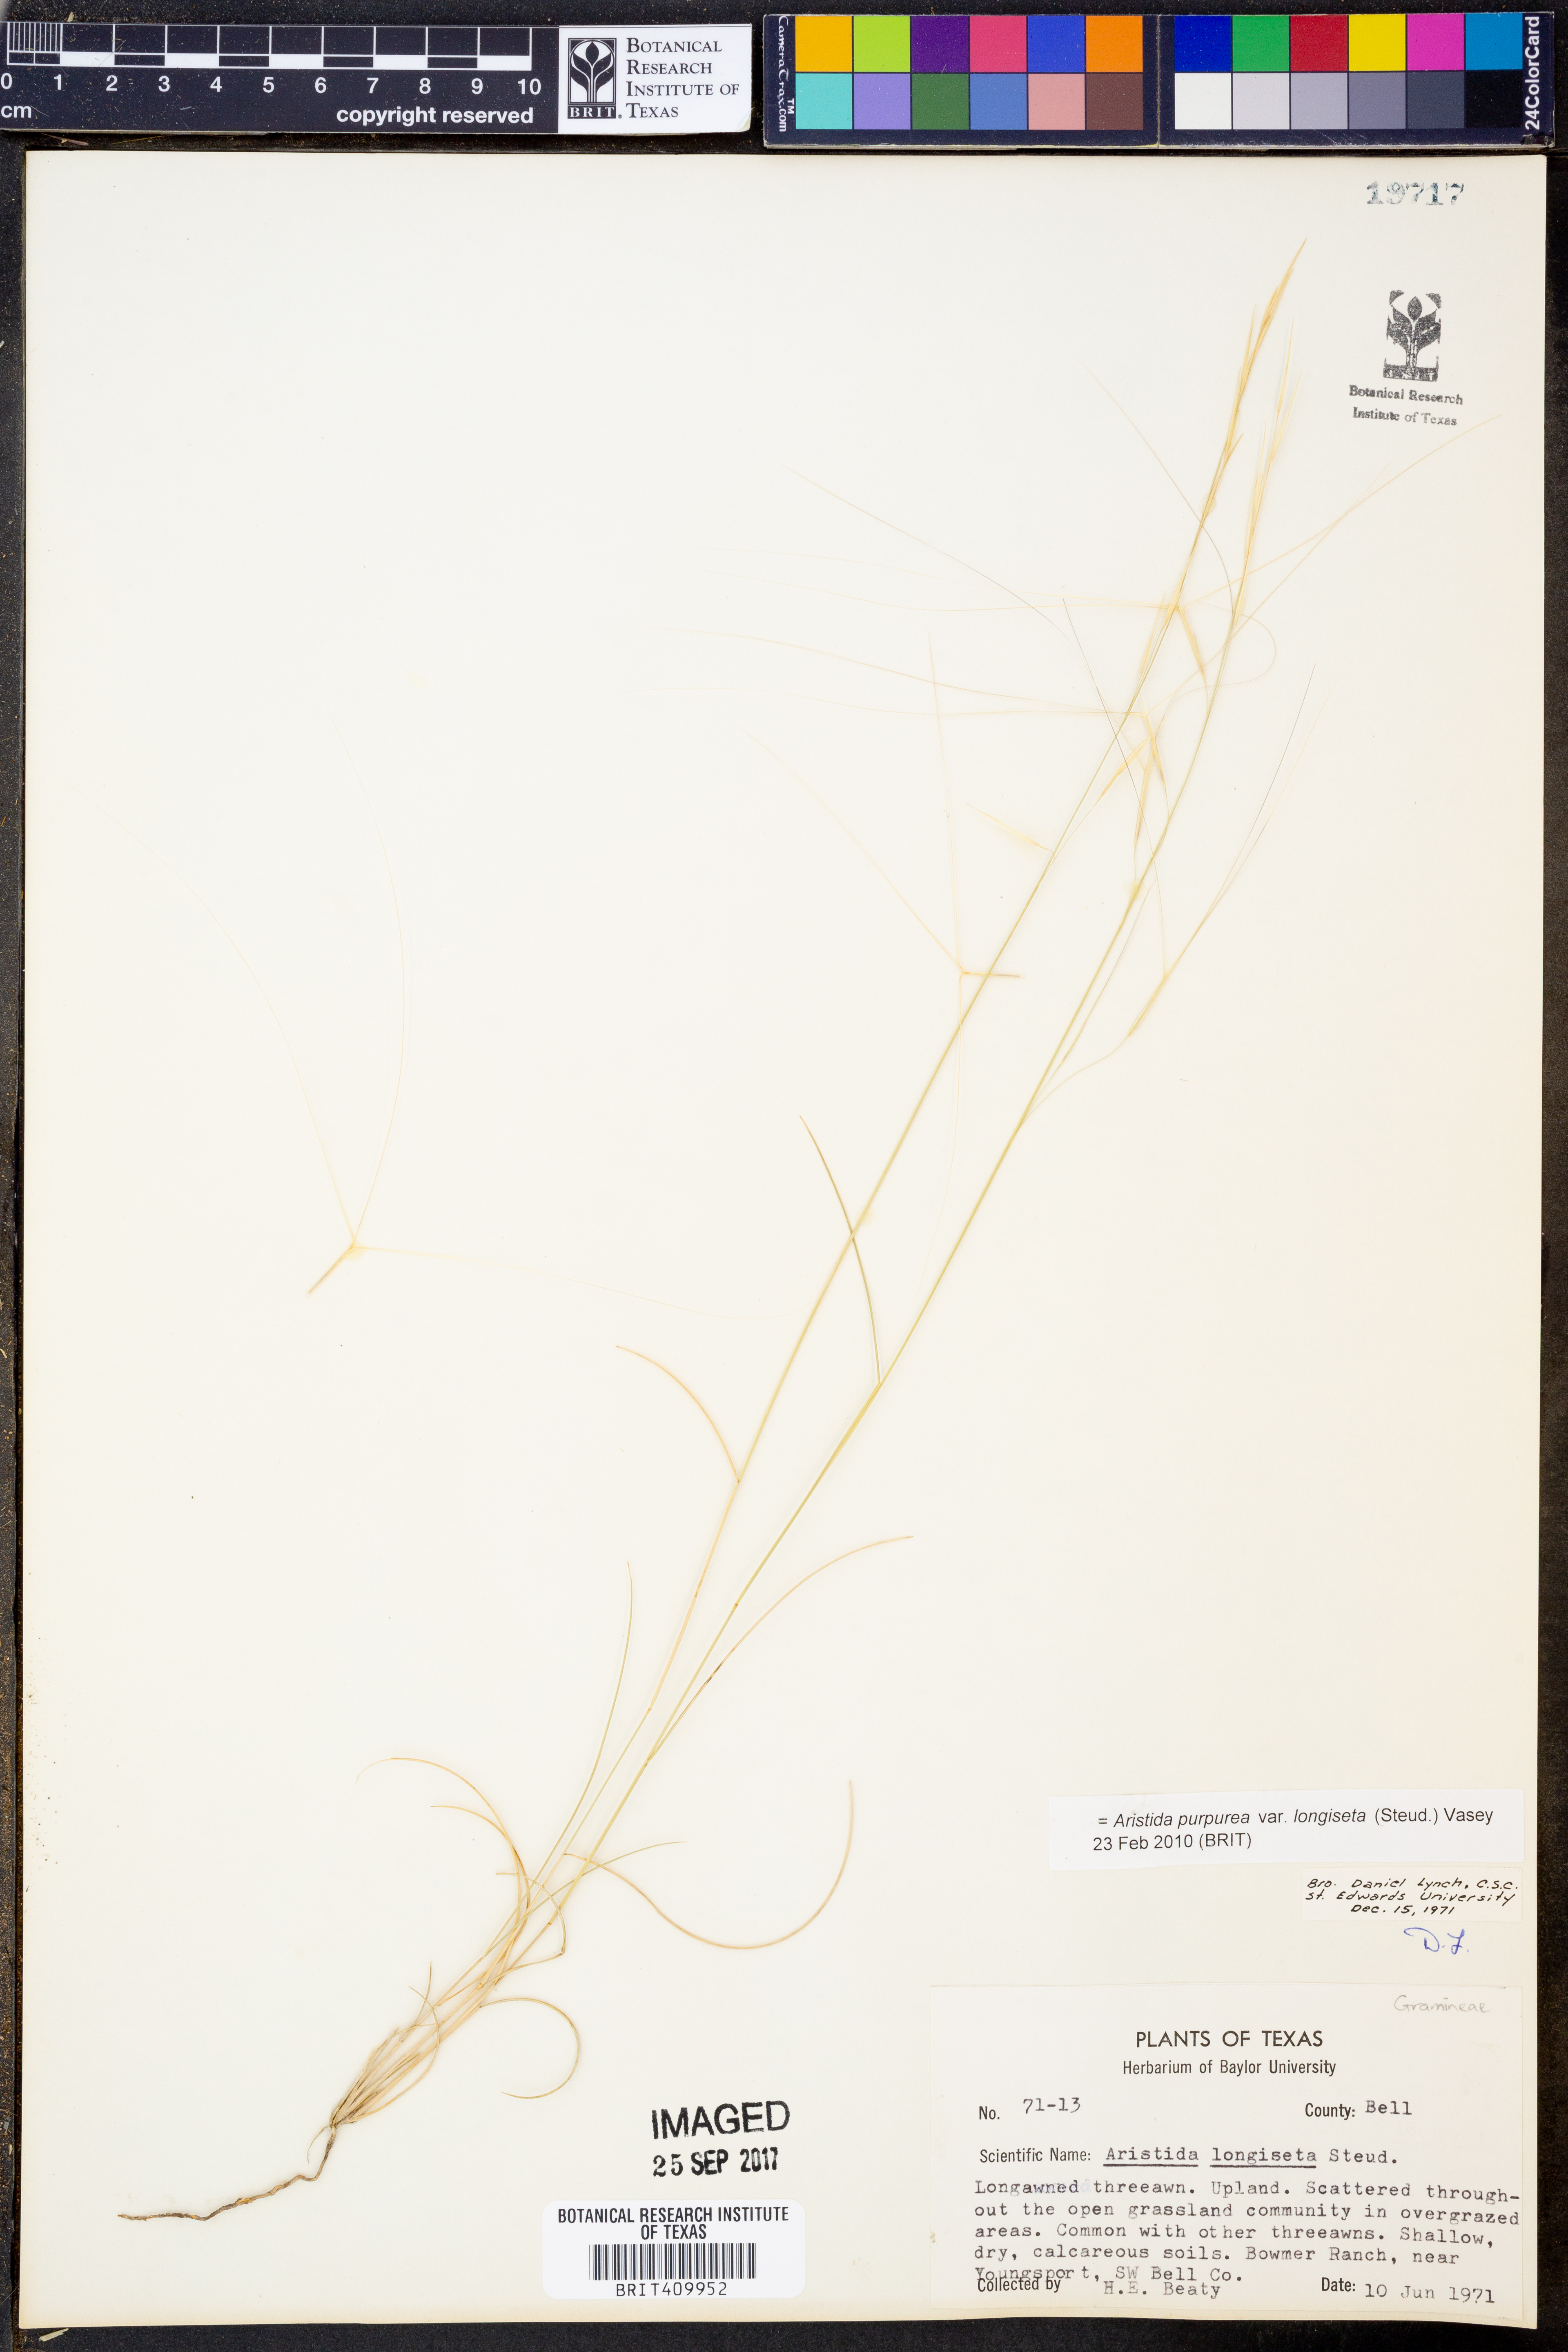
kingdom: Plantae
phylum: Tracheophyta
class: Liliopsida
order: Poales
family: Poaceae
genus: Aristida
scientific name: Aristida longiseta
